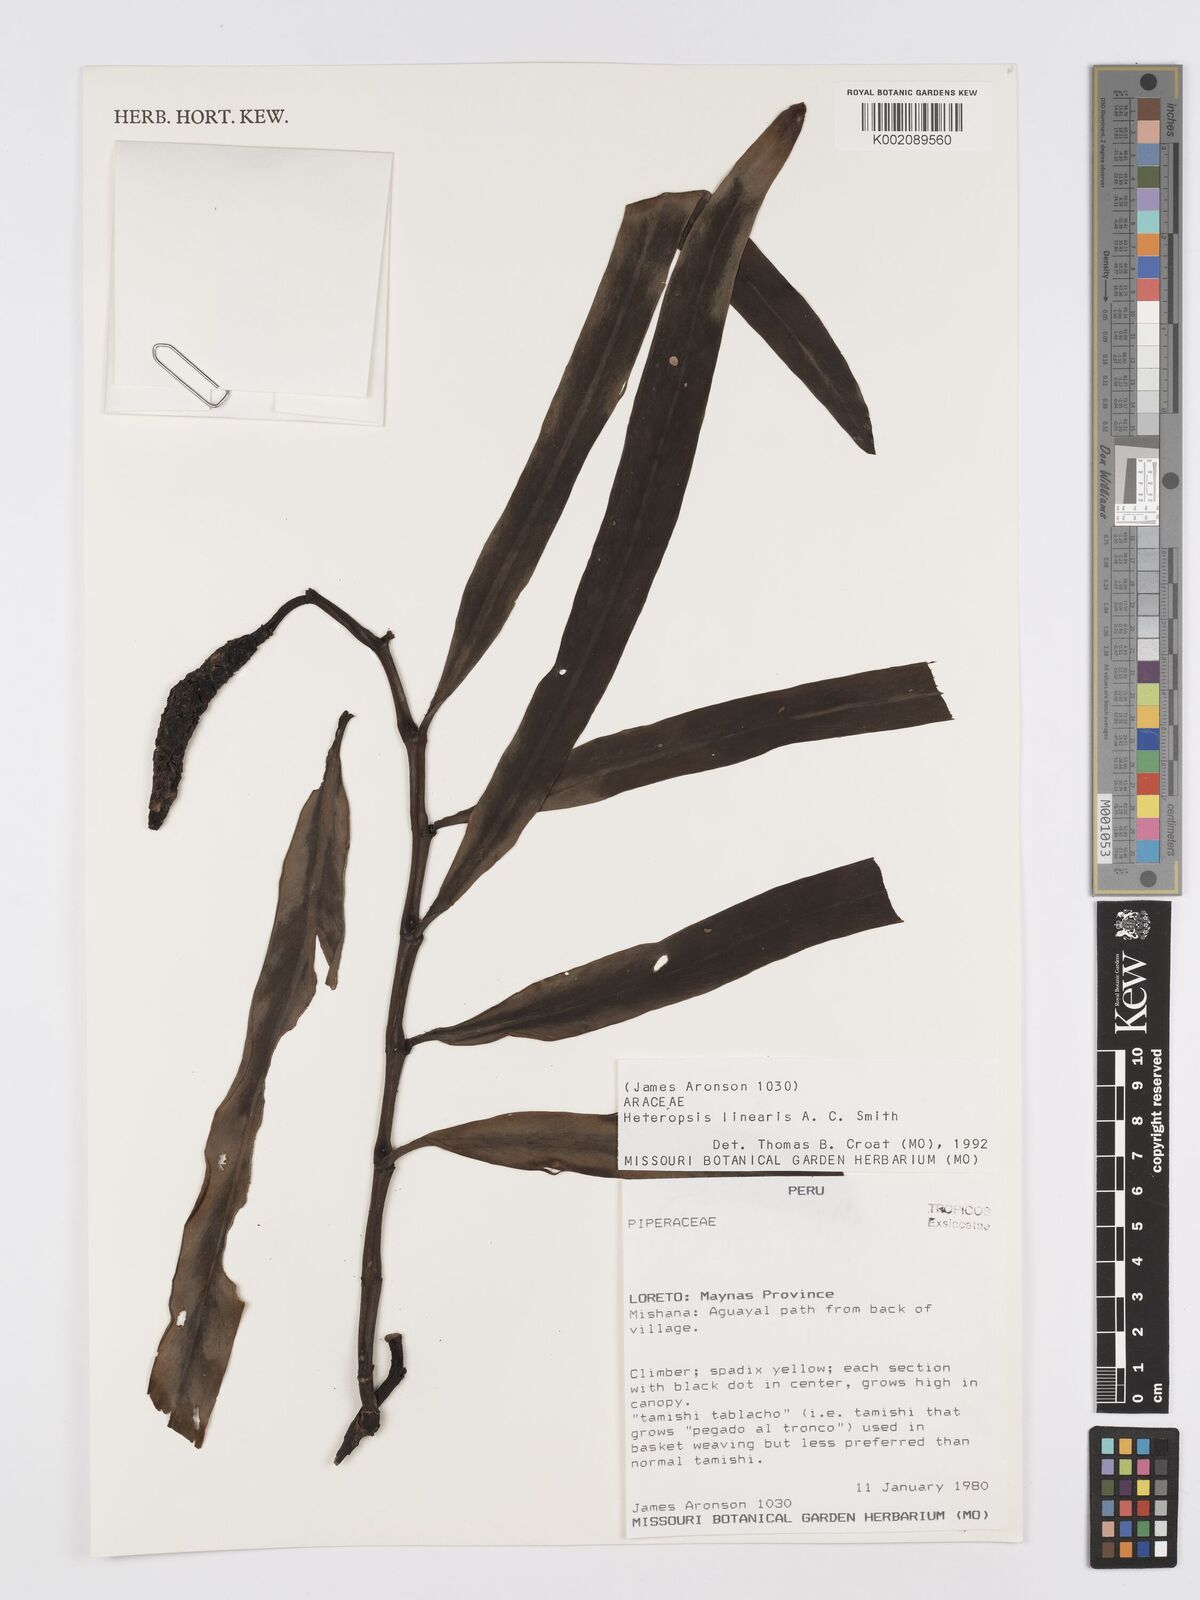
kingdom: Plantae
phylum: Tracheophyta
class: Liliopsida
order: Alismatales
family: Araceae
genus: Heteropsis
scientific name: Heteropsis linearis
